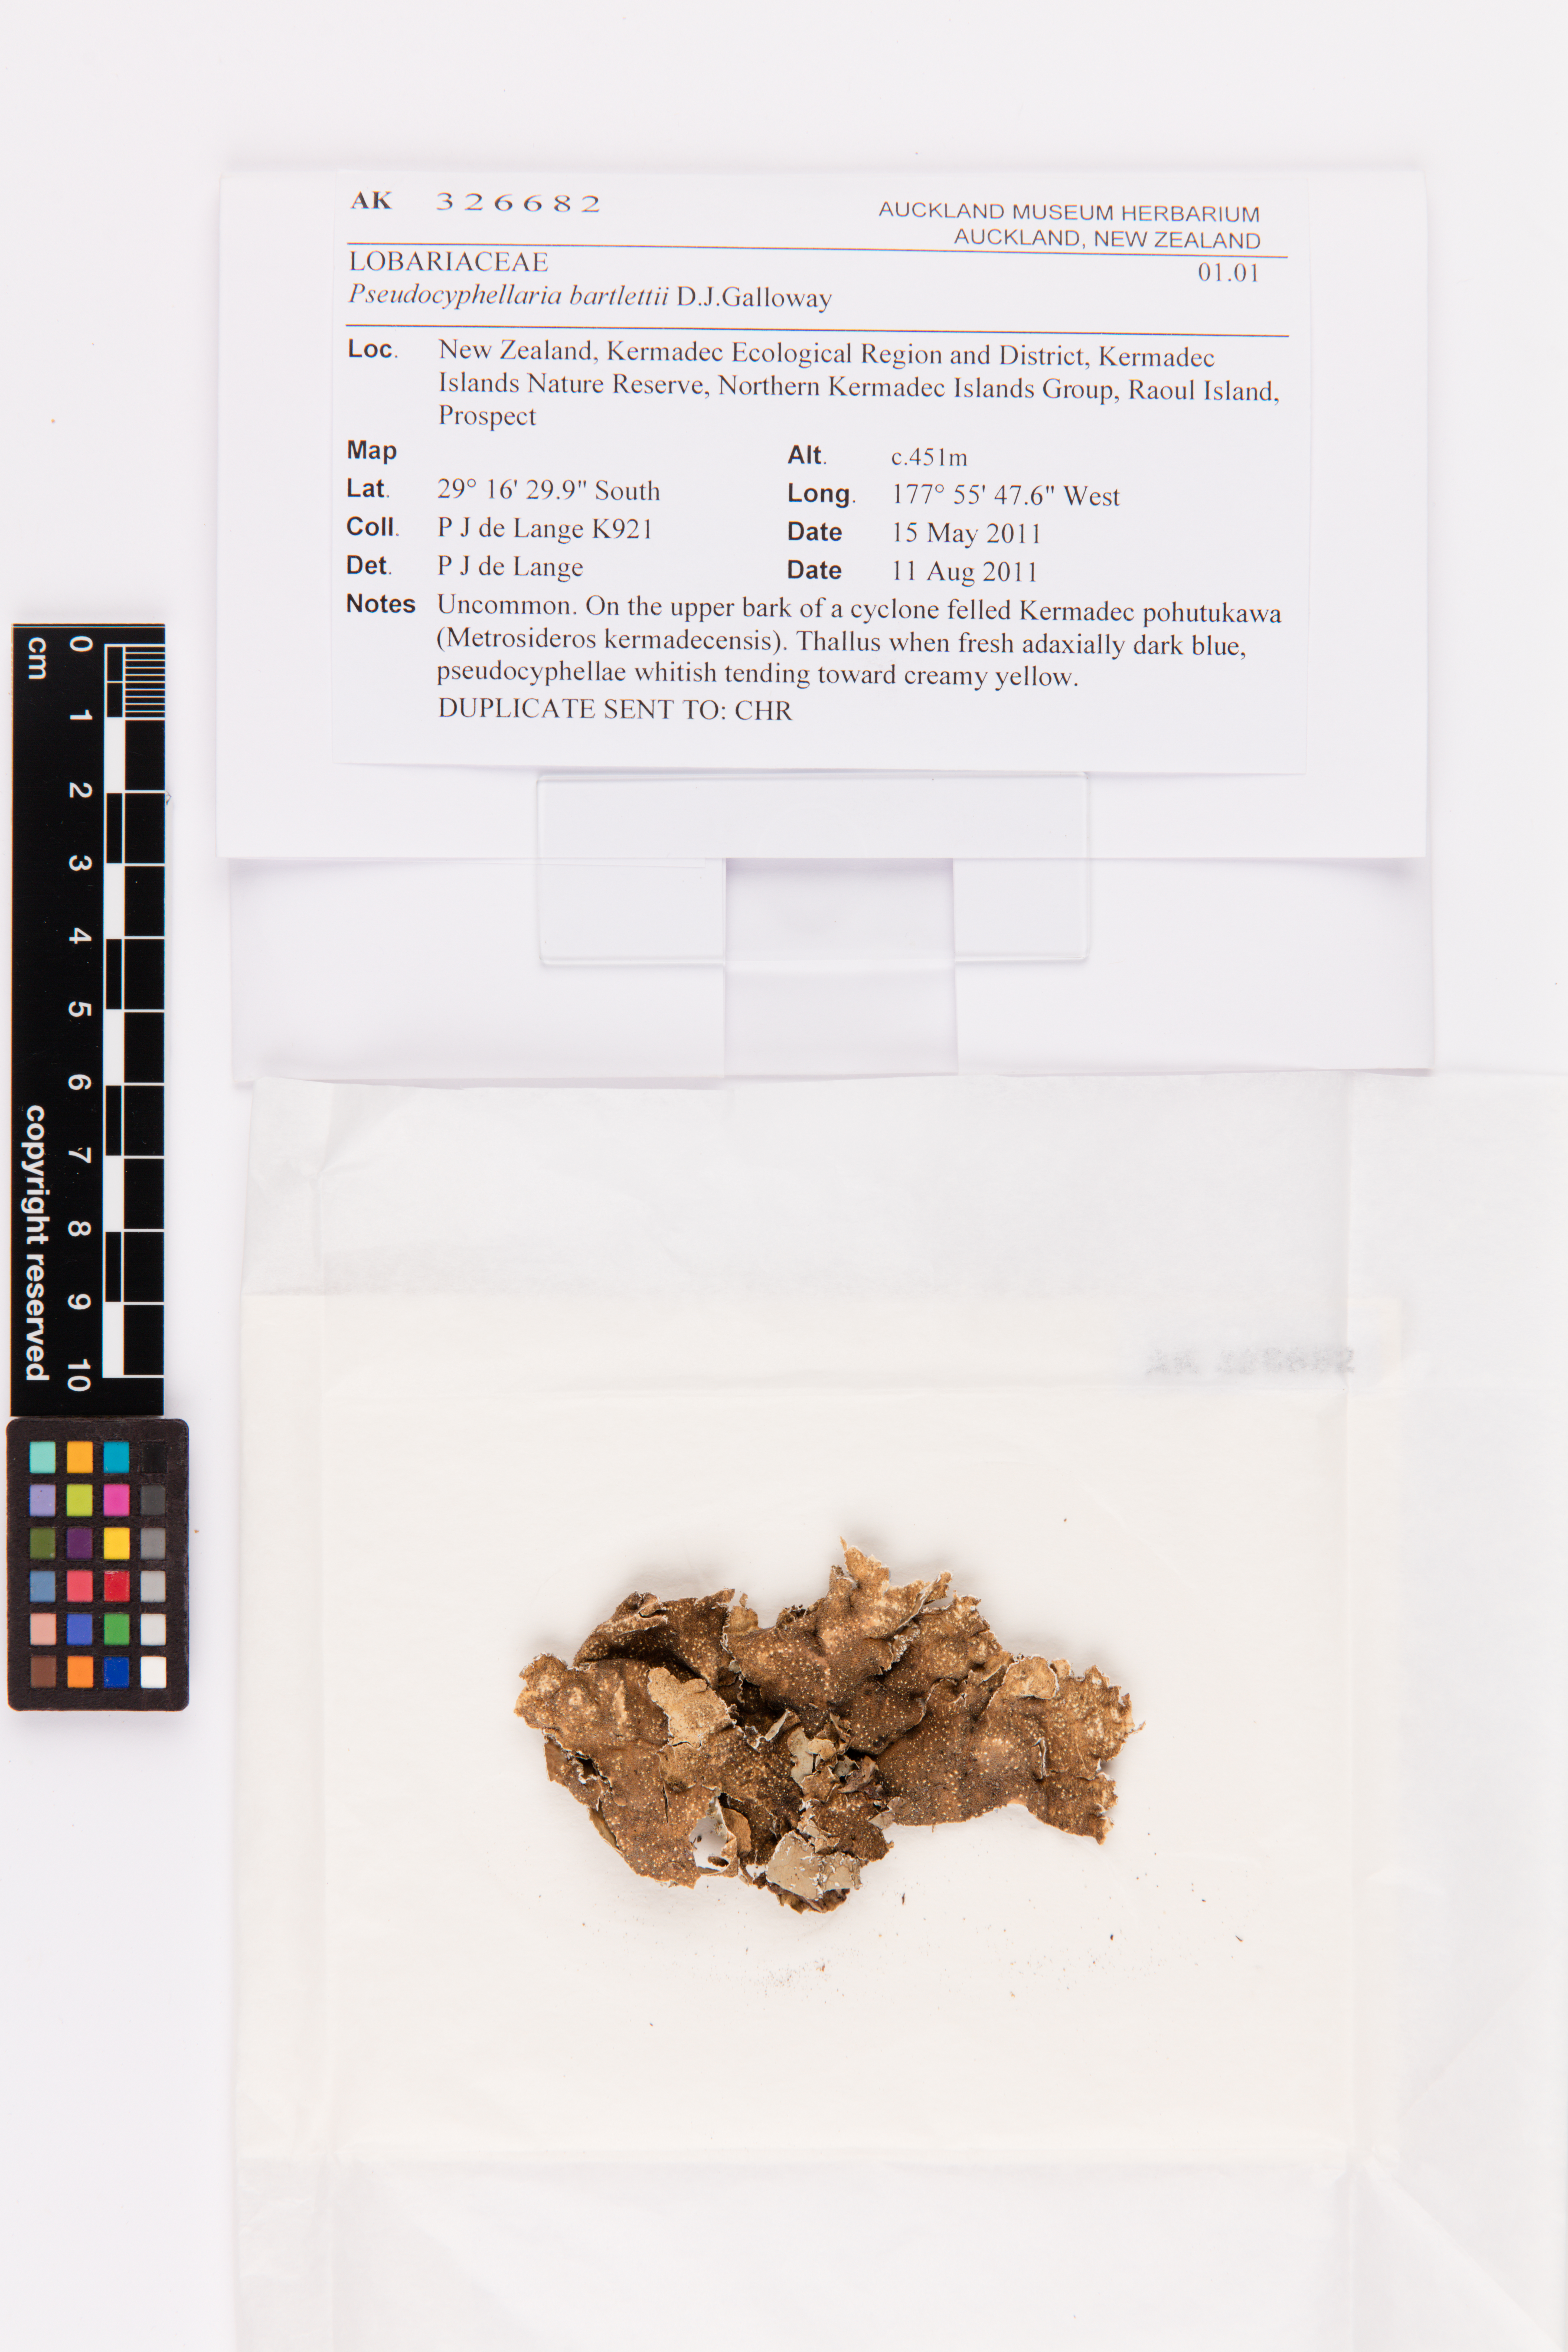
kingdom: Fungi
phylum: Ascomycota
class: Lecanoromycetes
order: Peltigerales
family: Lobariaceae
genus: Pseudocyphellaria
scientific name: Pseudocyphellaria bartlettii
